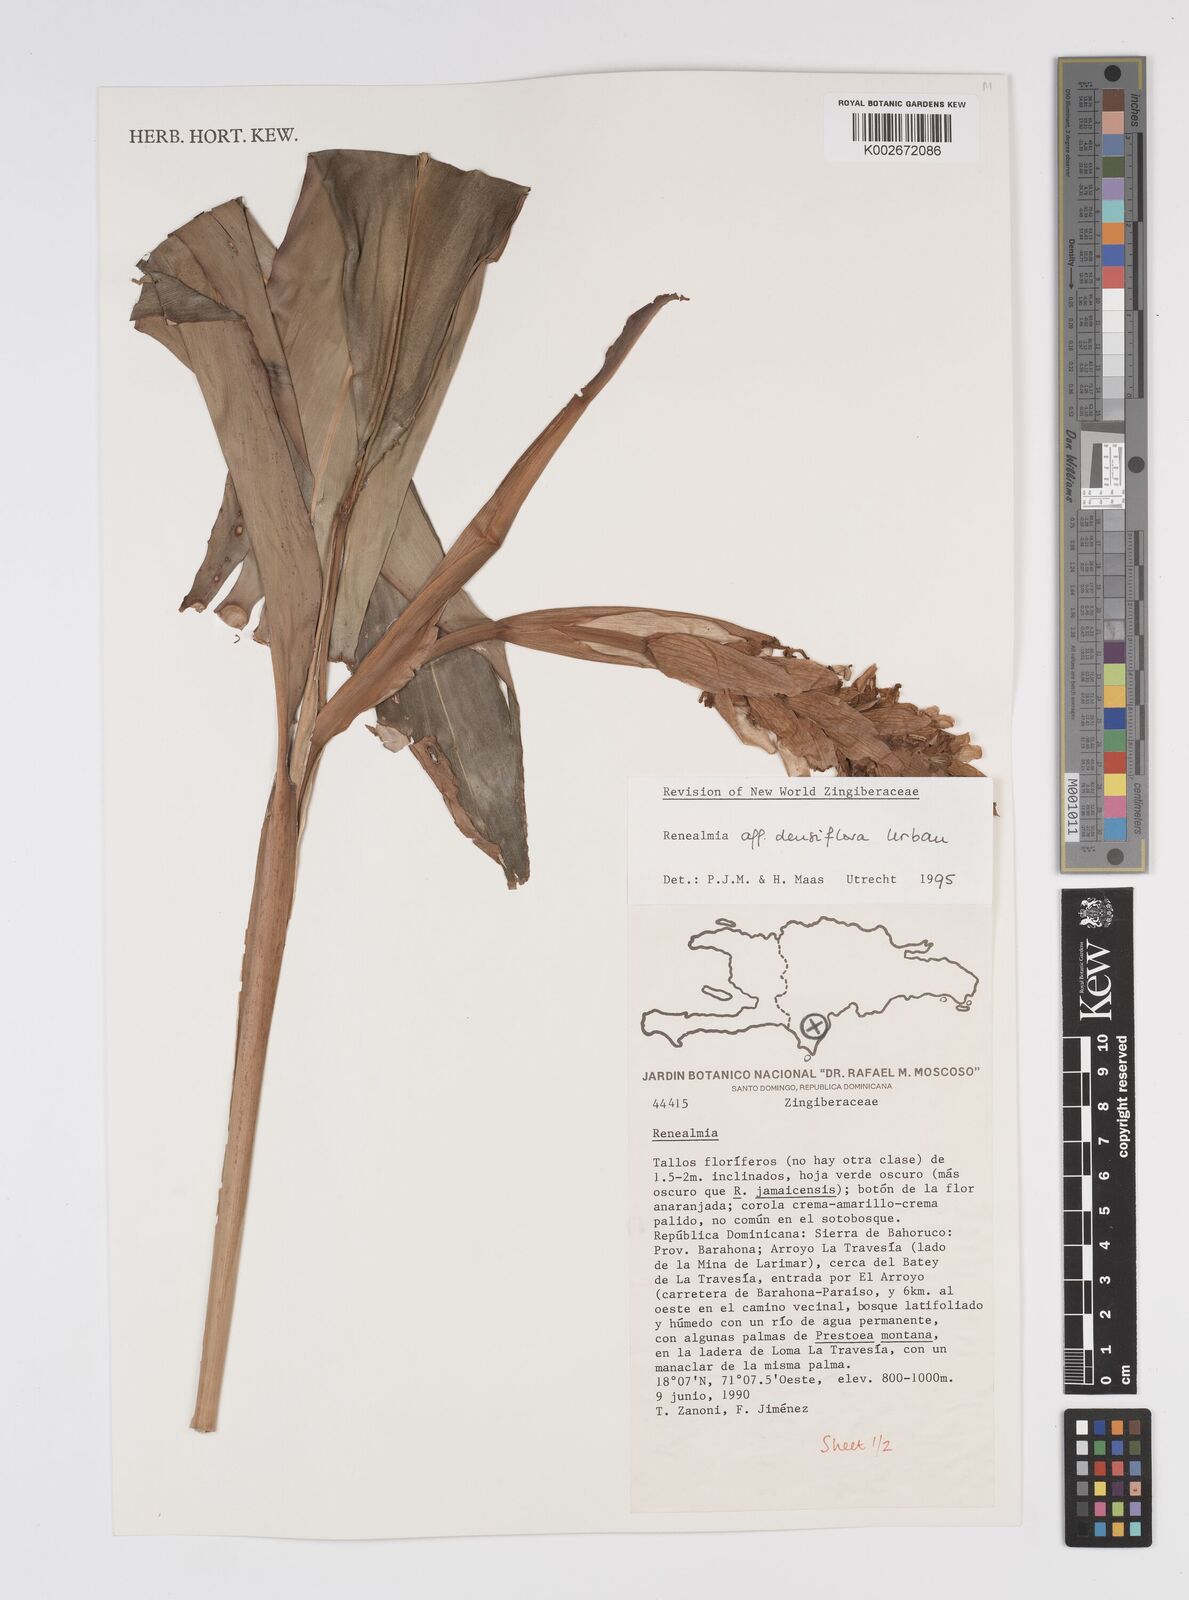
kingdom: Plantae
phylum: Tracheophyta
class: Liliopsida
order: Zingiberales
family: Zingiberaceae
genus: Renealmia
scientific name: Renealmia densiflora
